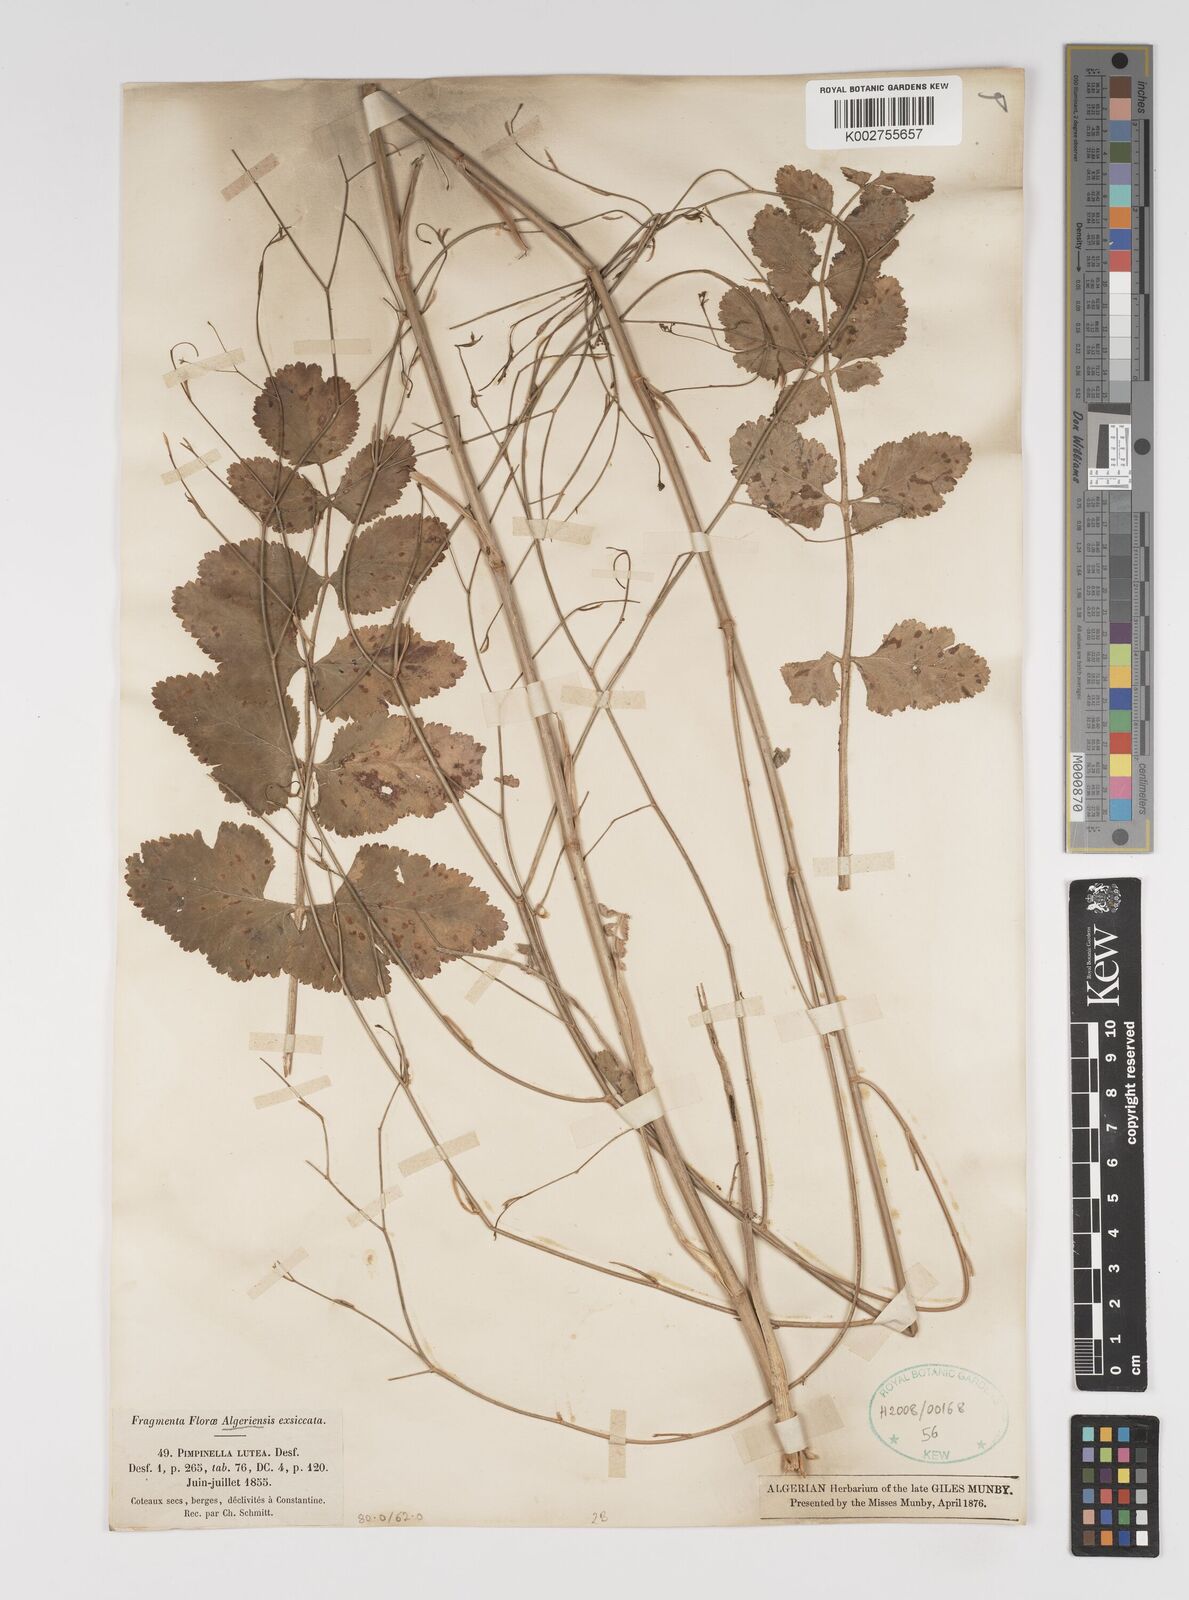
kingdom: Plantae
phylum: Tracheophyta
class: Magnoliopsida
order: Apiales
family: Apiaceae
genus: Pimpinella
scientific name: Pimpinella
